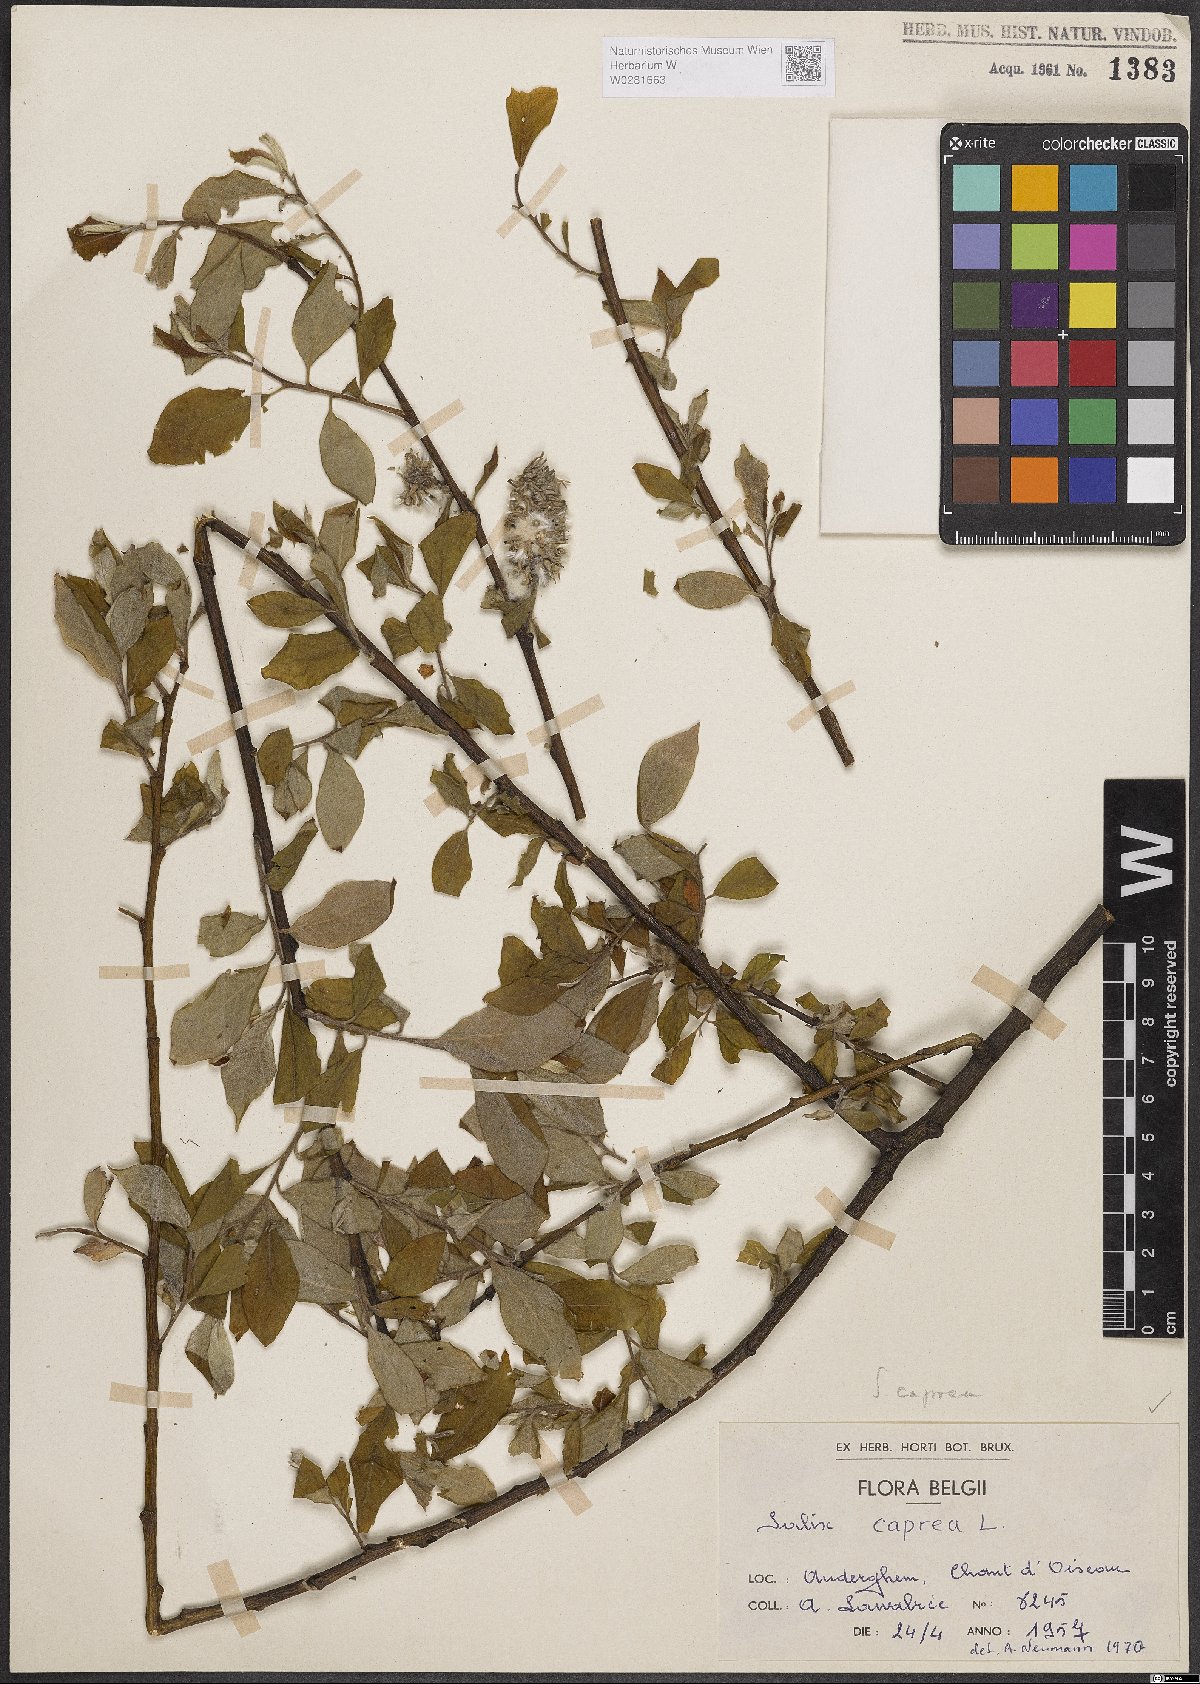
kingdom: Plantae
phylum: Tracheophyta
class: Magnoliopsida
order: Malpighiales
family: Salicaceae
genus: Salix
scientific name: Salix caprea
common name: Goat willow
